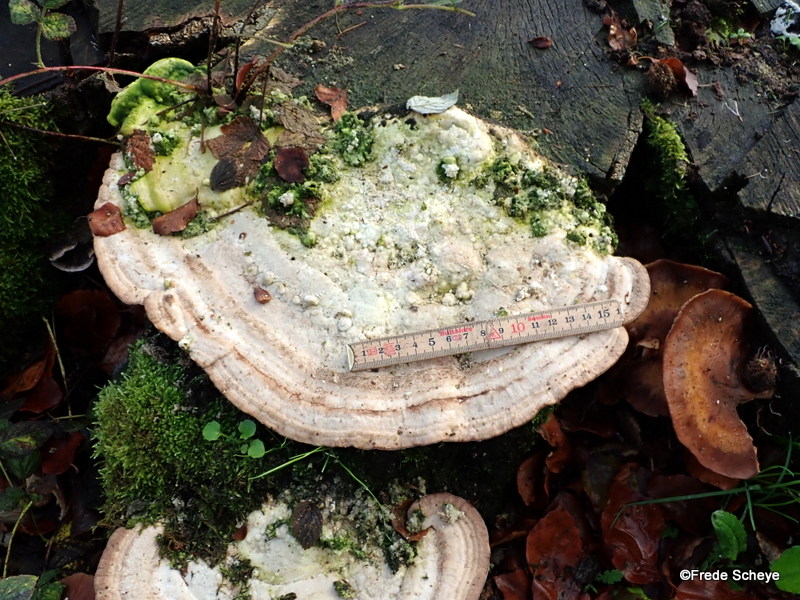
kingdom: Fungi
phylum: Basidiomycota
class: Agaricomycetes
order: Polyporales
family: Polyporaceae
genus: Trametes
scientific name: Trametes gibbosa
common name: puklet læderporesvamp
